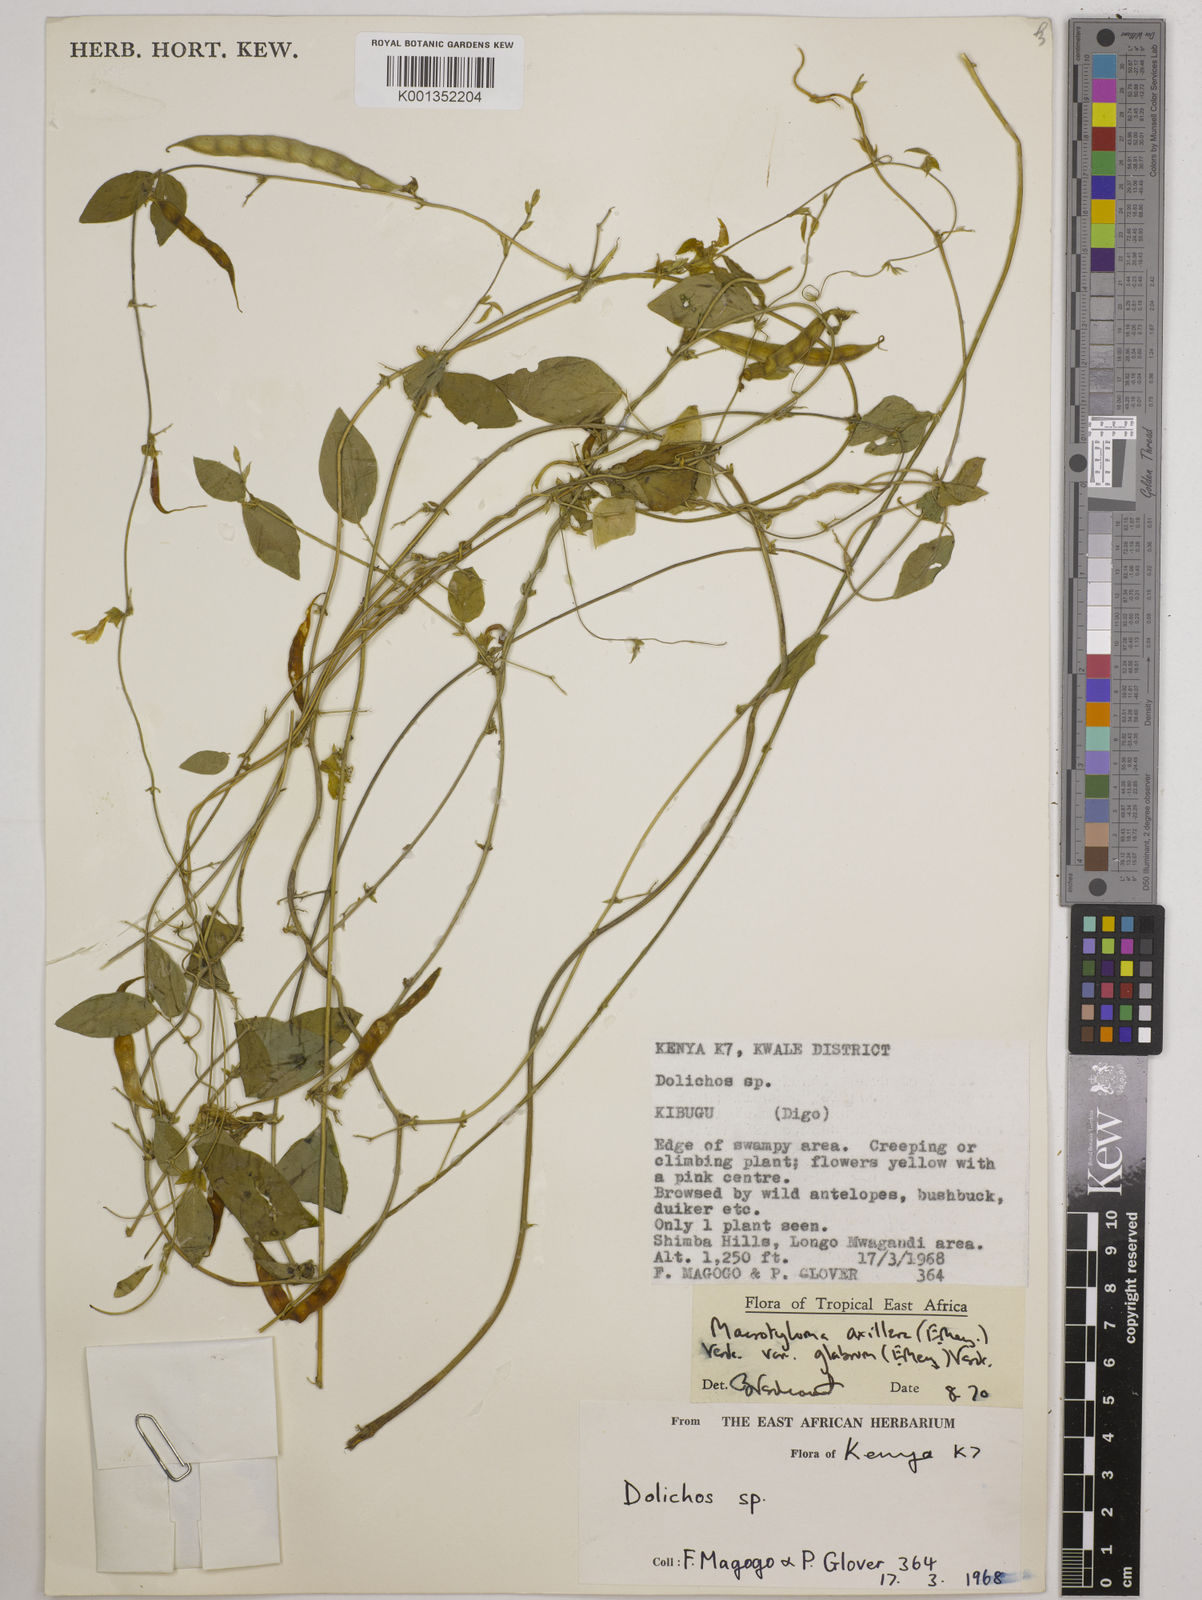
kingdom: Plantae
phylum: Tracheophyta
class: Magnoliopsida
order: Fabales
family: Fabaceae
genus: Macrotyloma
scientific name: Macrotyloma
